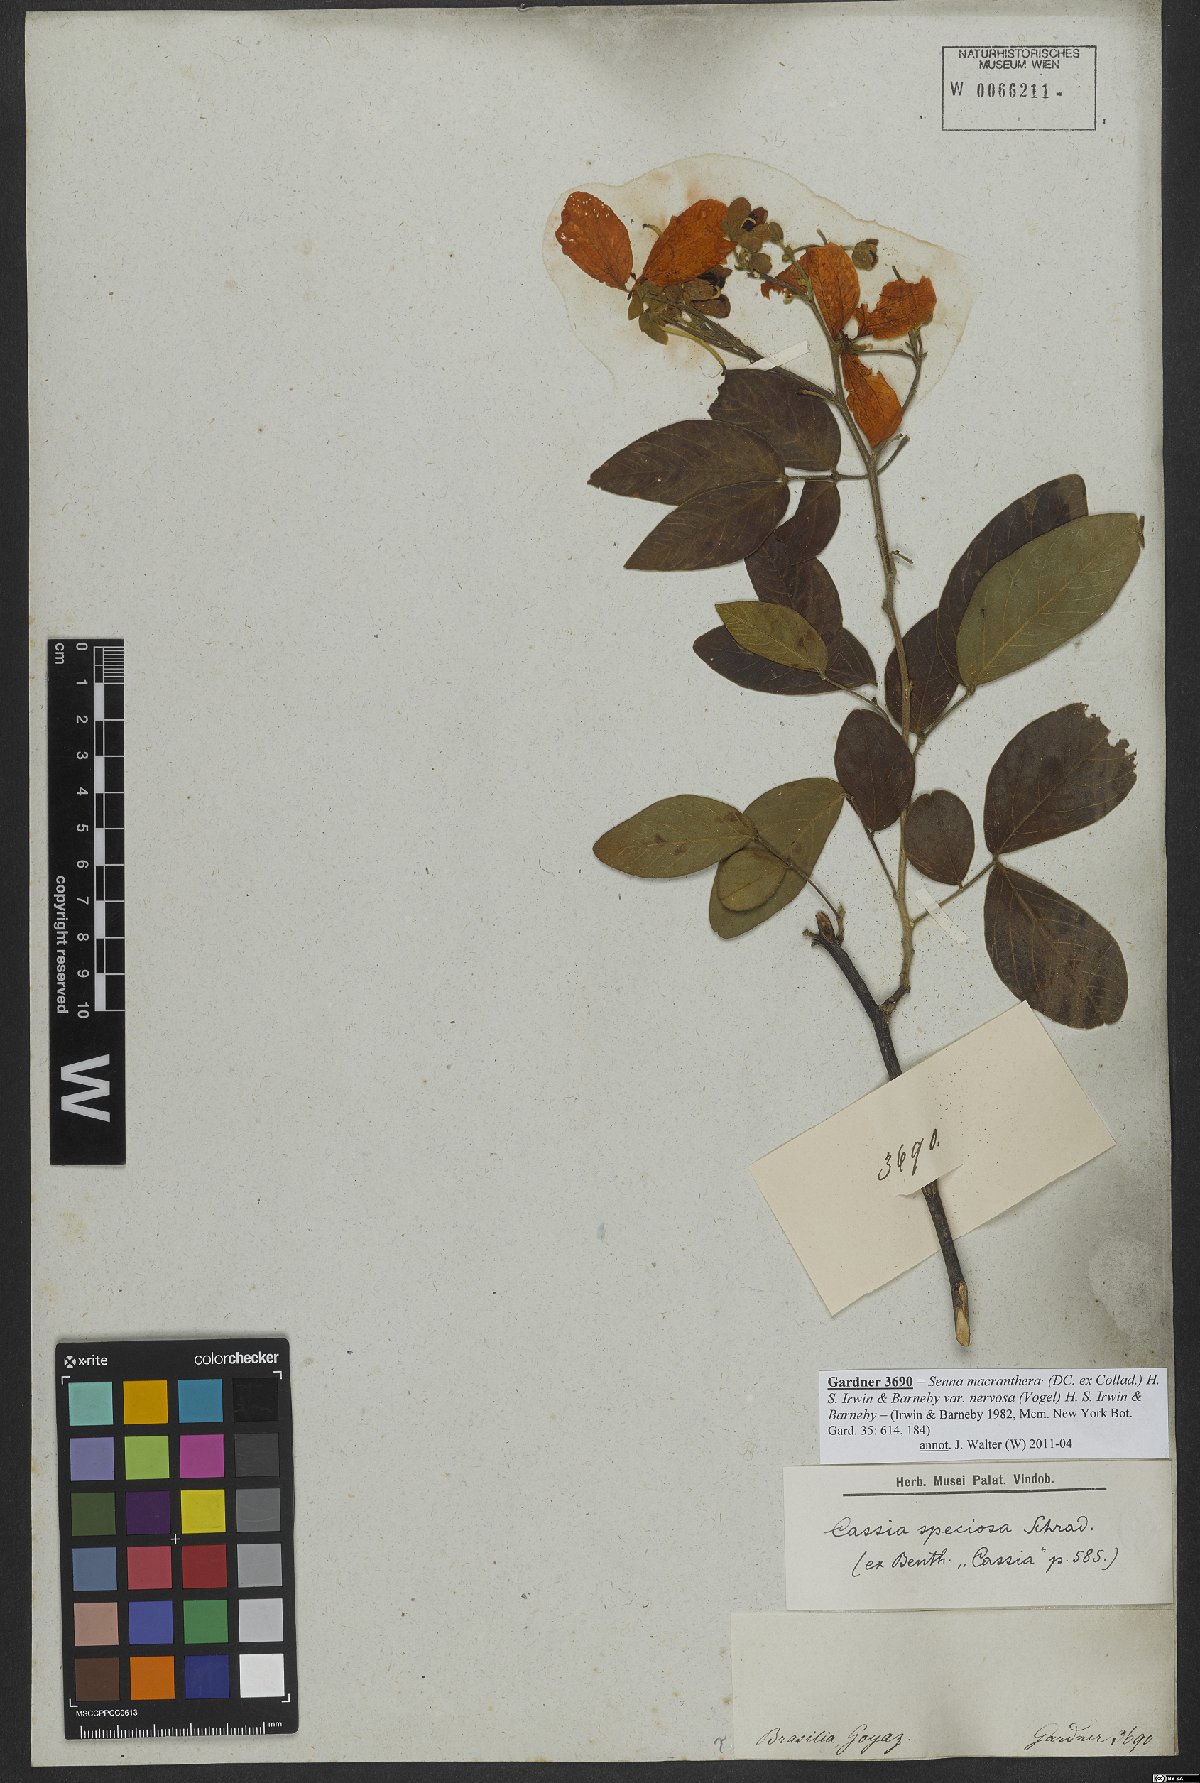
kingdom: Plantae
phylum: Tracheophyta
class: Magnoliopsida
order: Fabales
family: Fabaceae
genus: Senna
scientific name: Senna macranthera
